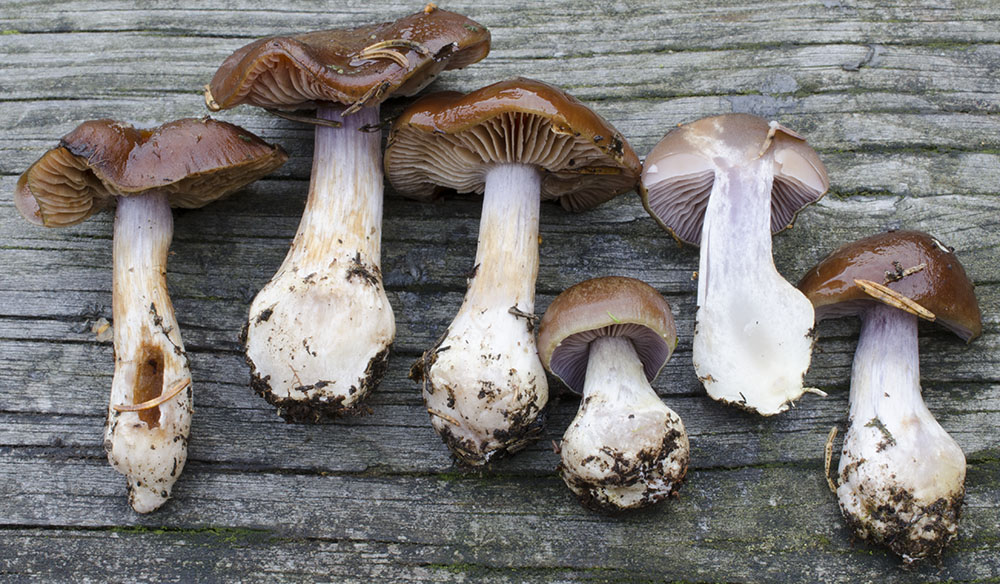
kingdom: Fungi
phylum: Basidiomycota
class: Agaricomycetes
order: Agaricales
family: Cortinariaceae
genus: Thaxterogaster
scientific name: Thaxterogaster sphagnophilus
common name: vandplettet slørhat
